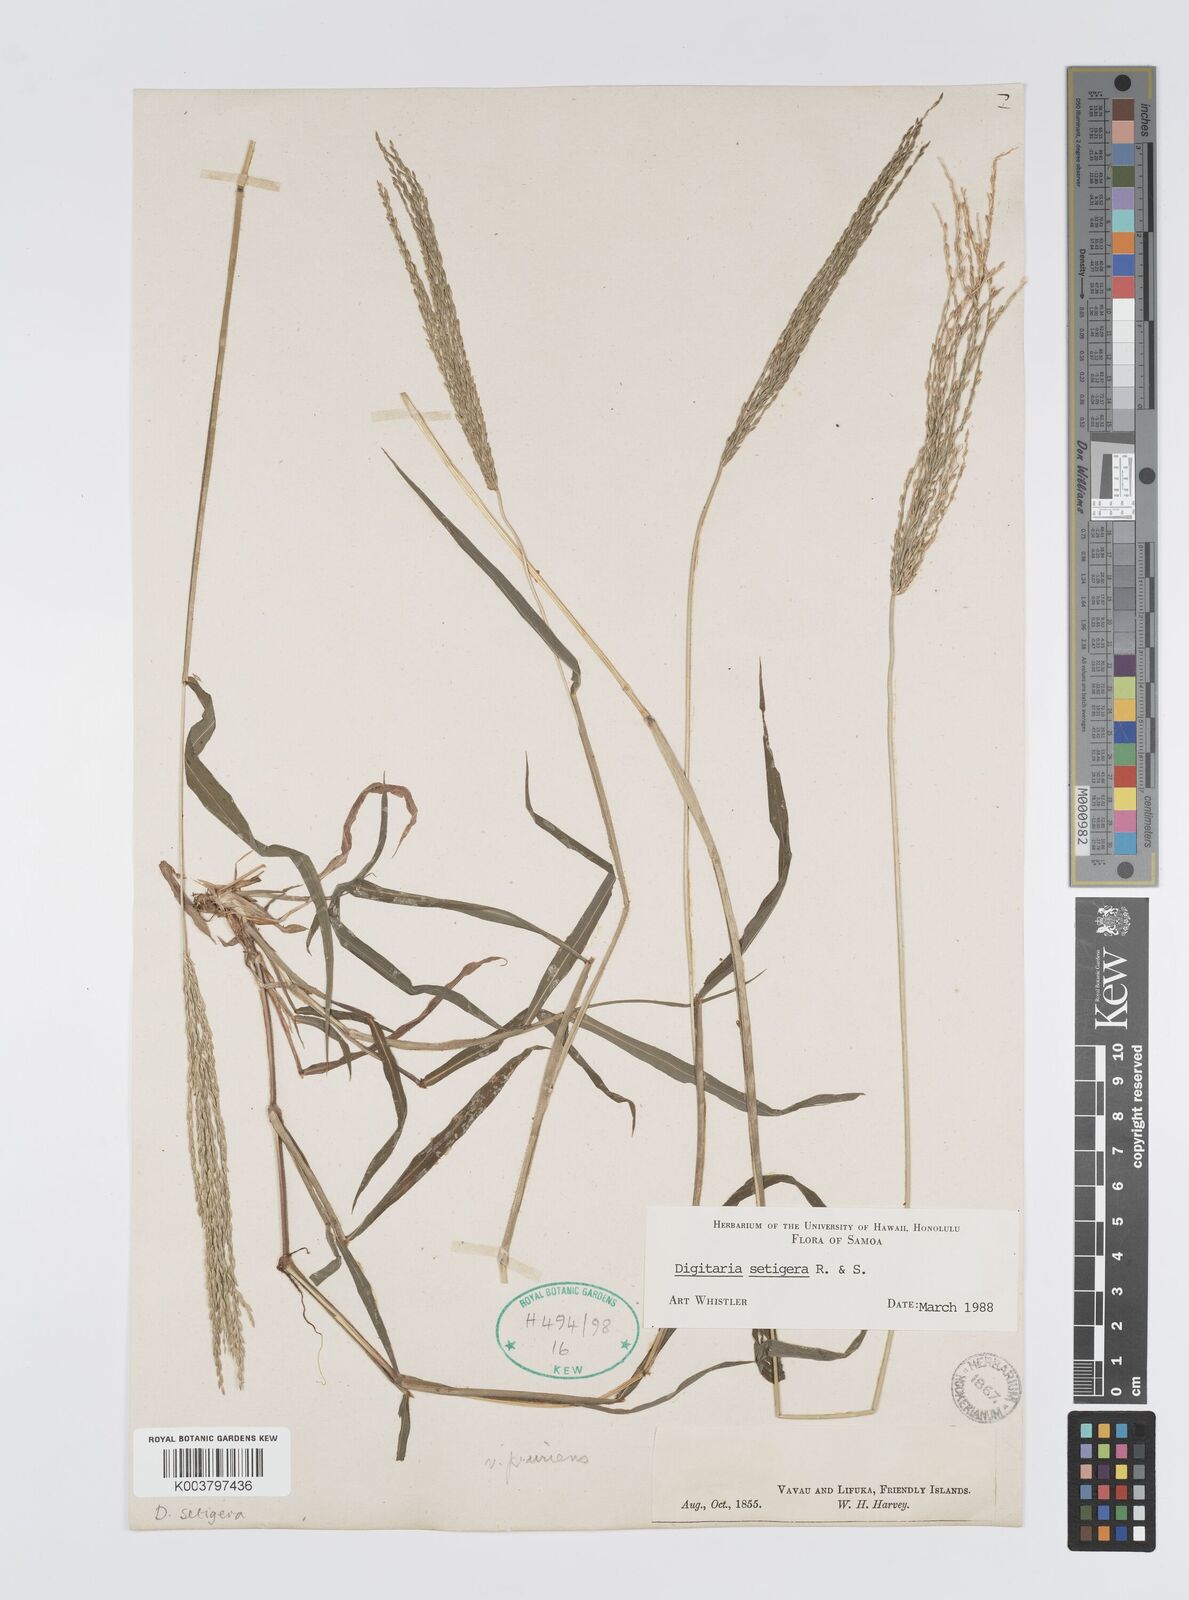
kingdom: Plantae
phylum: Tracheophyta
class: Liliopsida
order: Poales
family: Poaceae
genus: Digitaria
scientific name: Digitaria setigera
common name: East indian crabgrass
